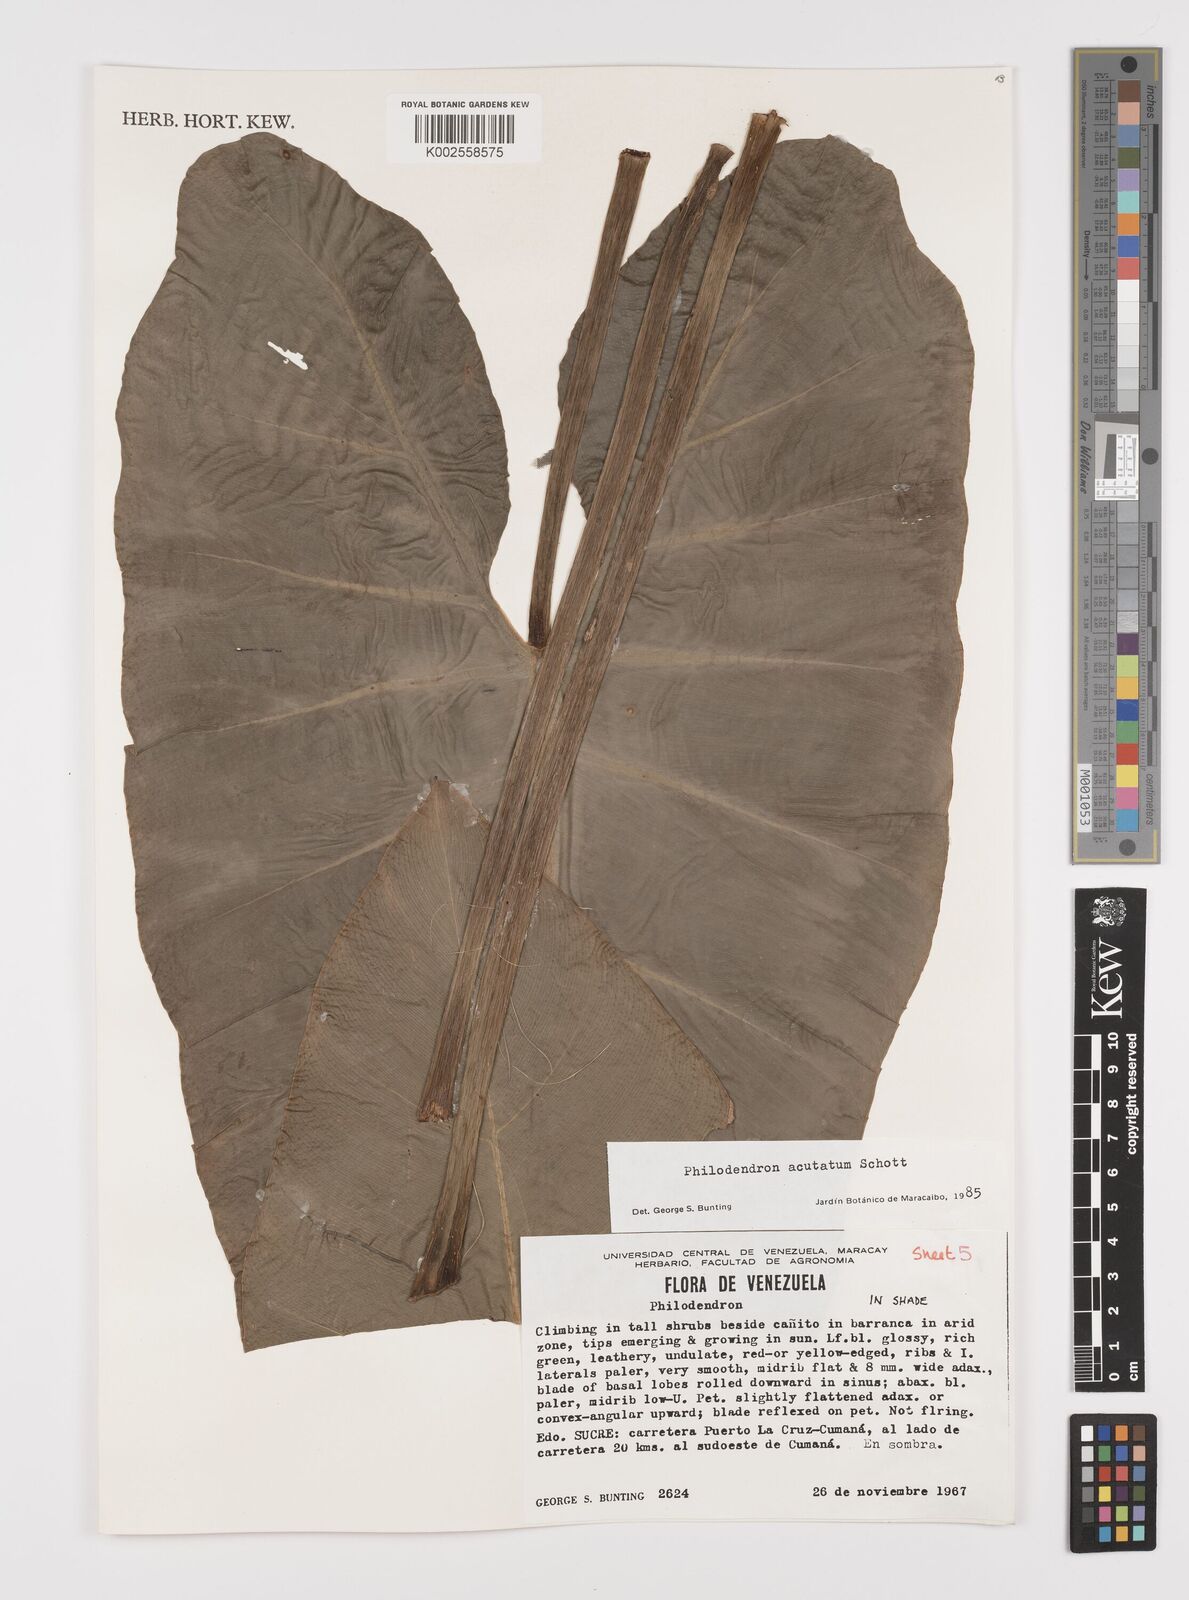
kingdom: Plantae
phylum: Tracheophyta
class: Liliopsida
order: Alismatales
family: Araceae
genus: Philodendron
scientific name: Philodendron quinquenervium
